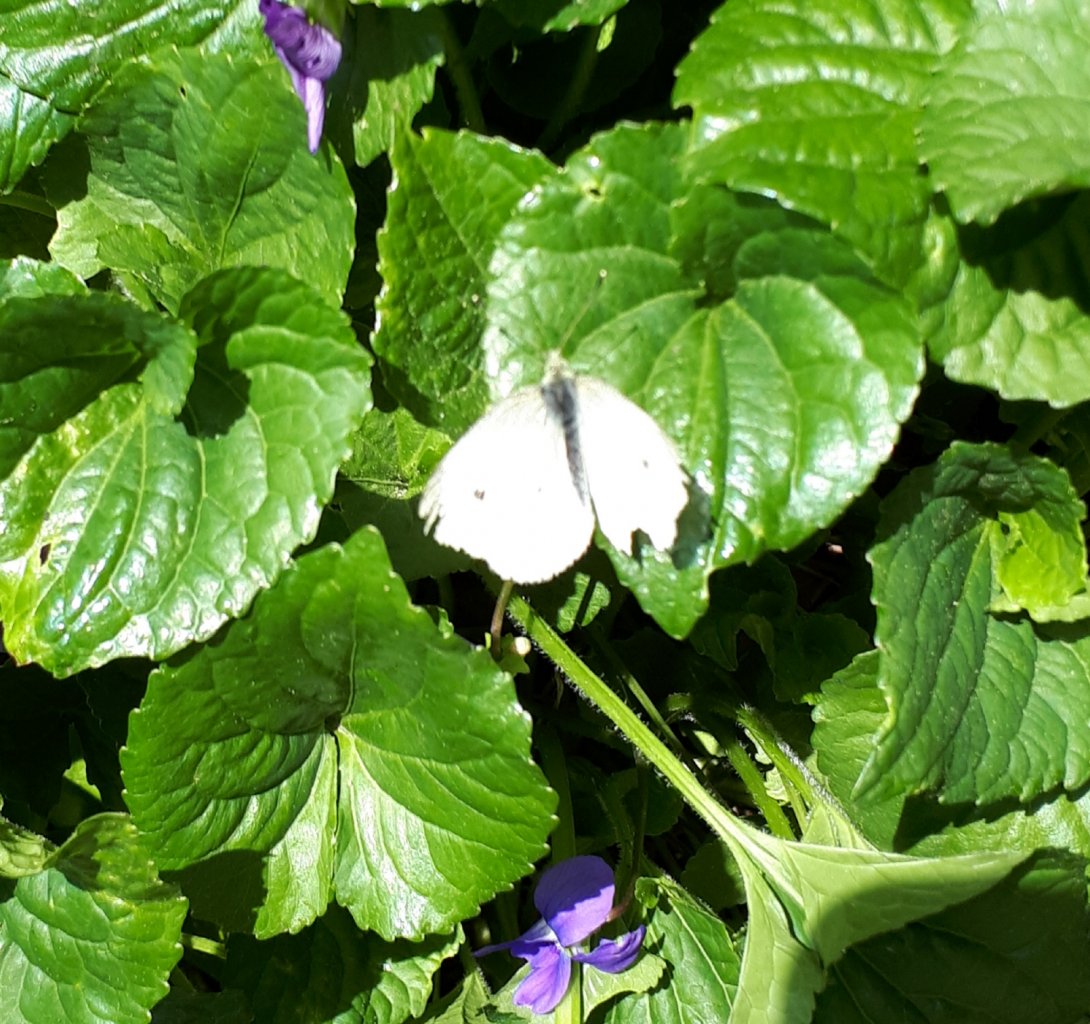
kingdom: Animalia
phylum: Arthropoda
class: Insecta
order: Lepidoptera
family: Pieridae
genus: Pieris
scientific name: Pieris rapae
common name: Cabbage White
